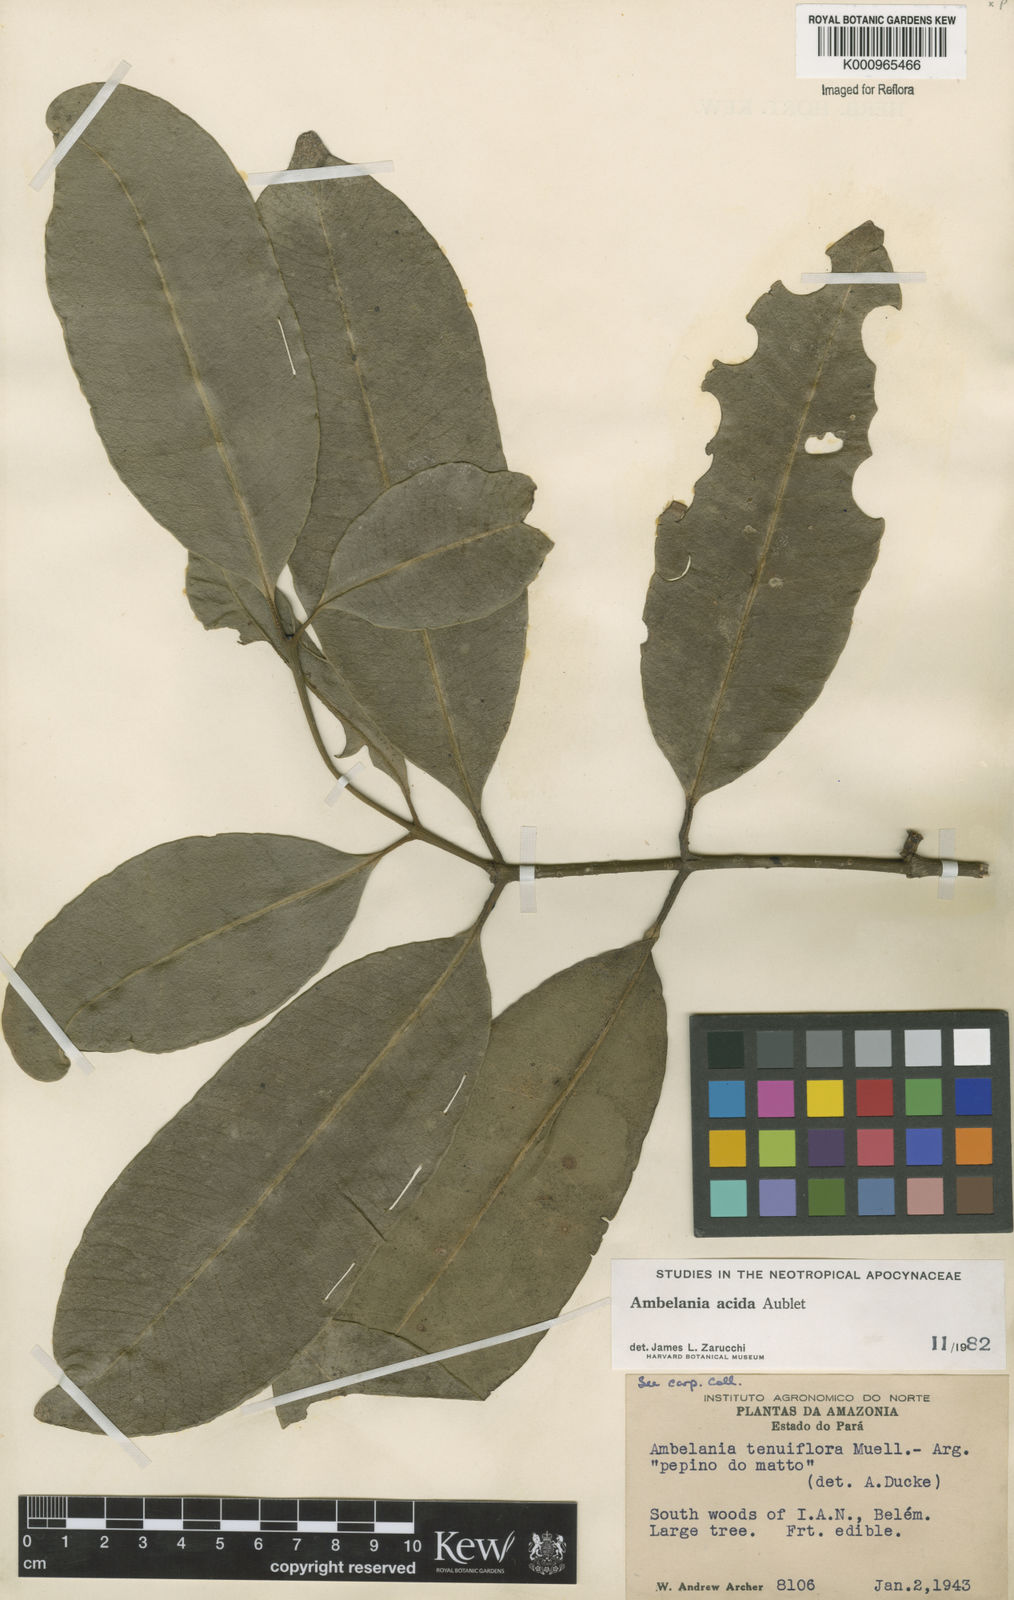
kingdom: Plantae
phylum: Tracheophyta
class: Magnoliopsida
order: Gentianales
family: Apocynaceae
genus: Ambelania
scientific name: Ambelania acida
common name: Bagasse
